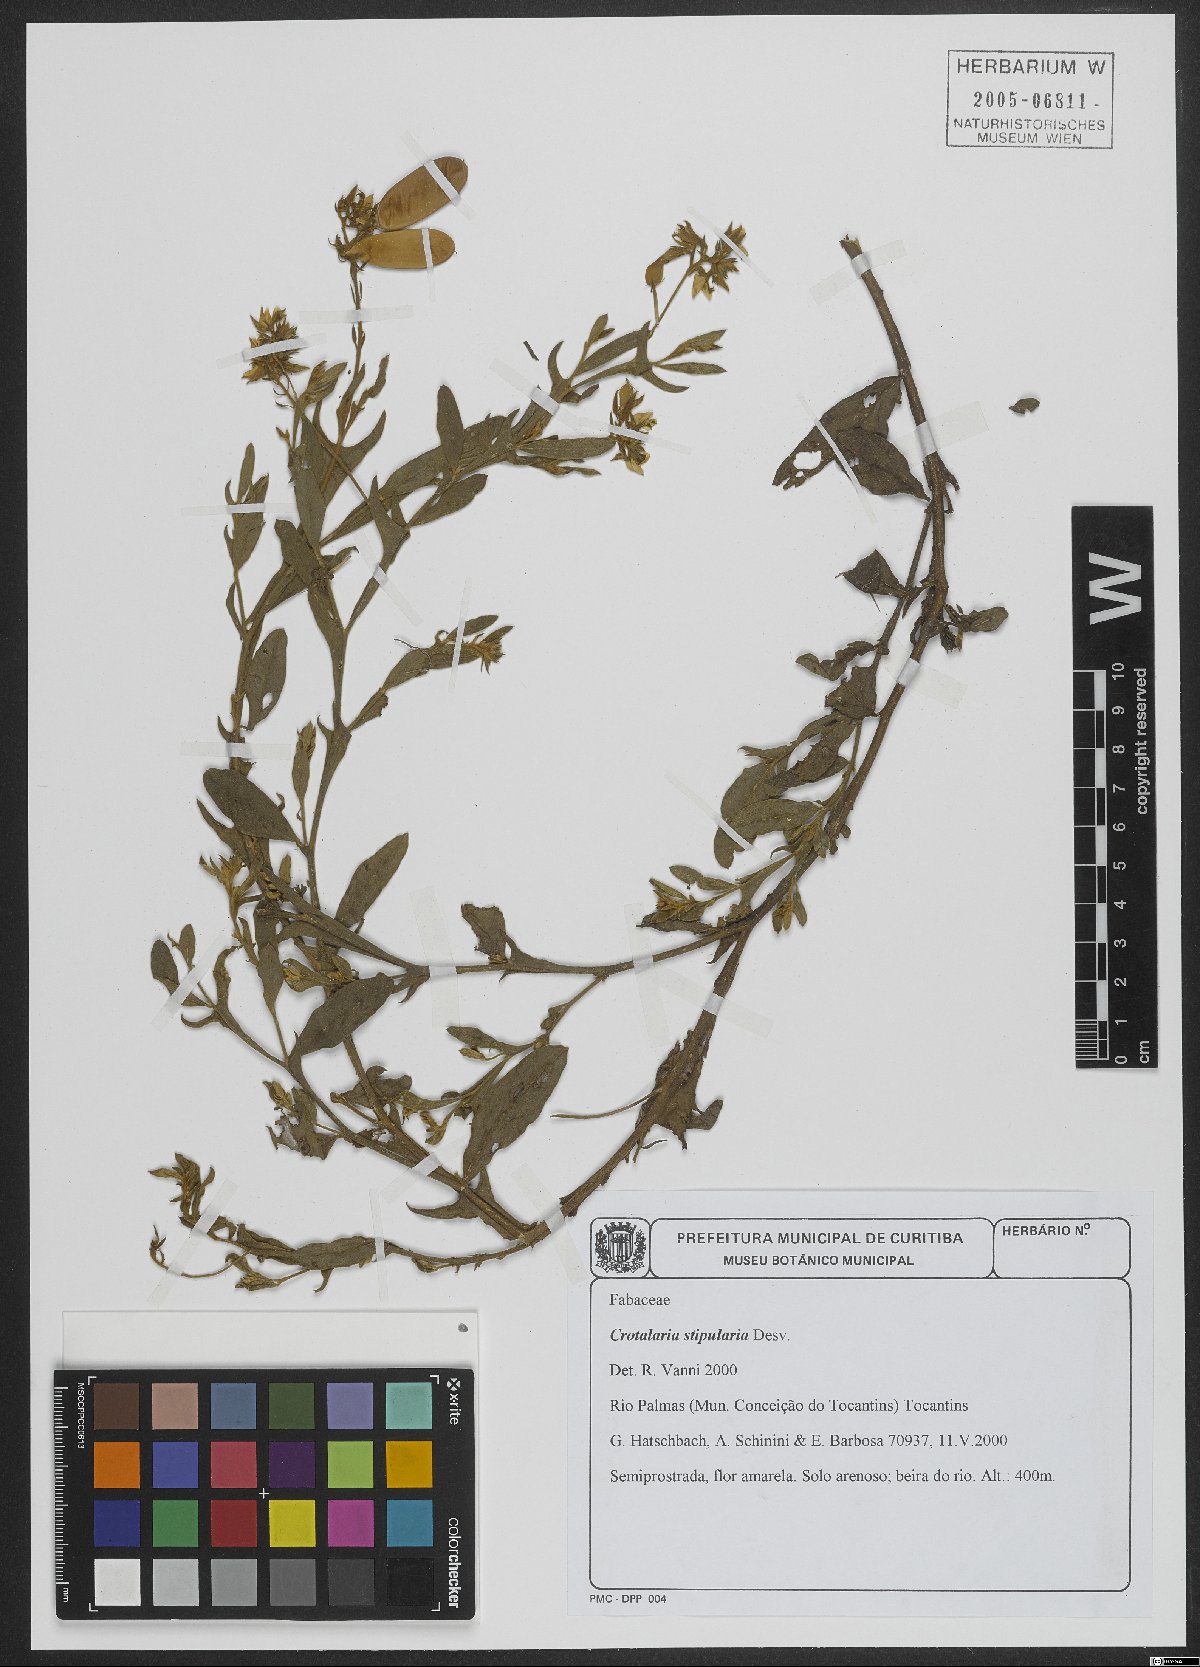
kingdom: Plantae
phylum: Tracheophyta
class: Magnoliopsida
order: Fabales
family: Fabaceae
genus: Crotalaria
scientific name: Crotalaria stipularia
